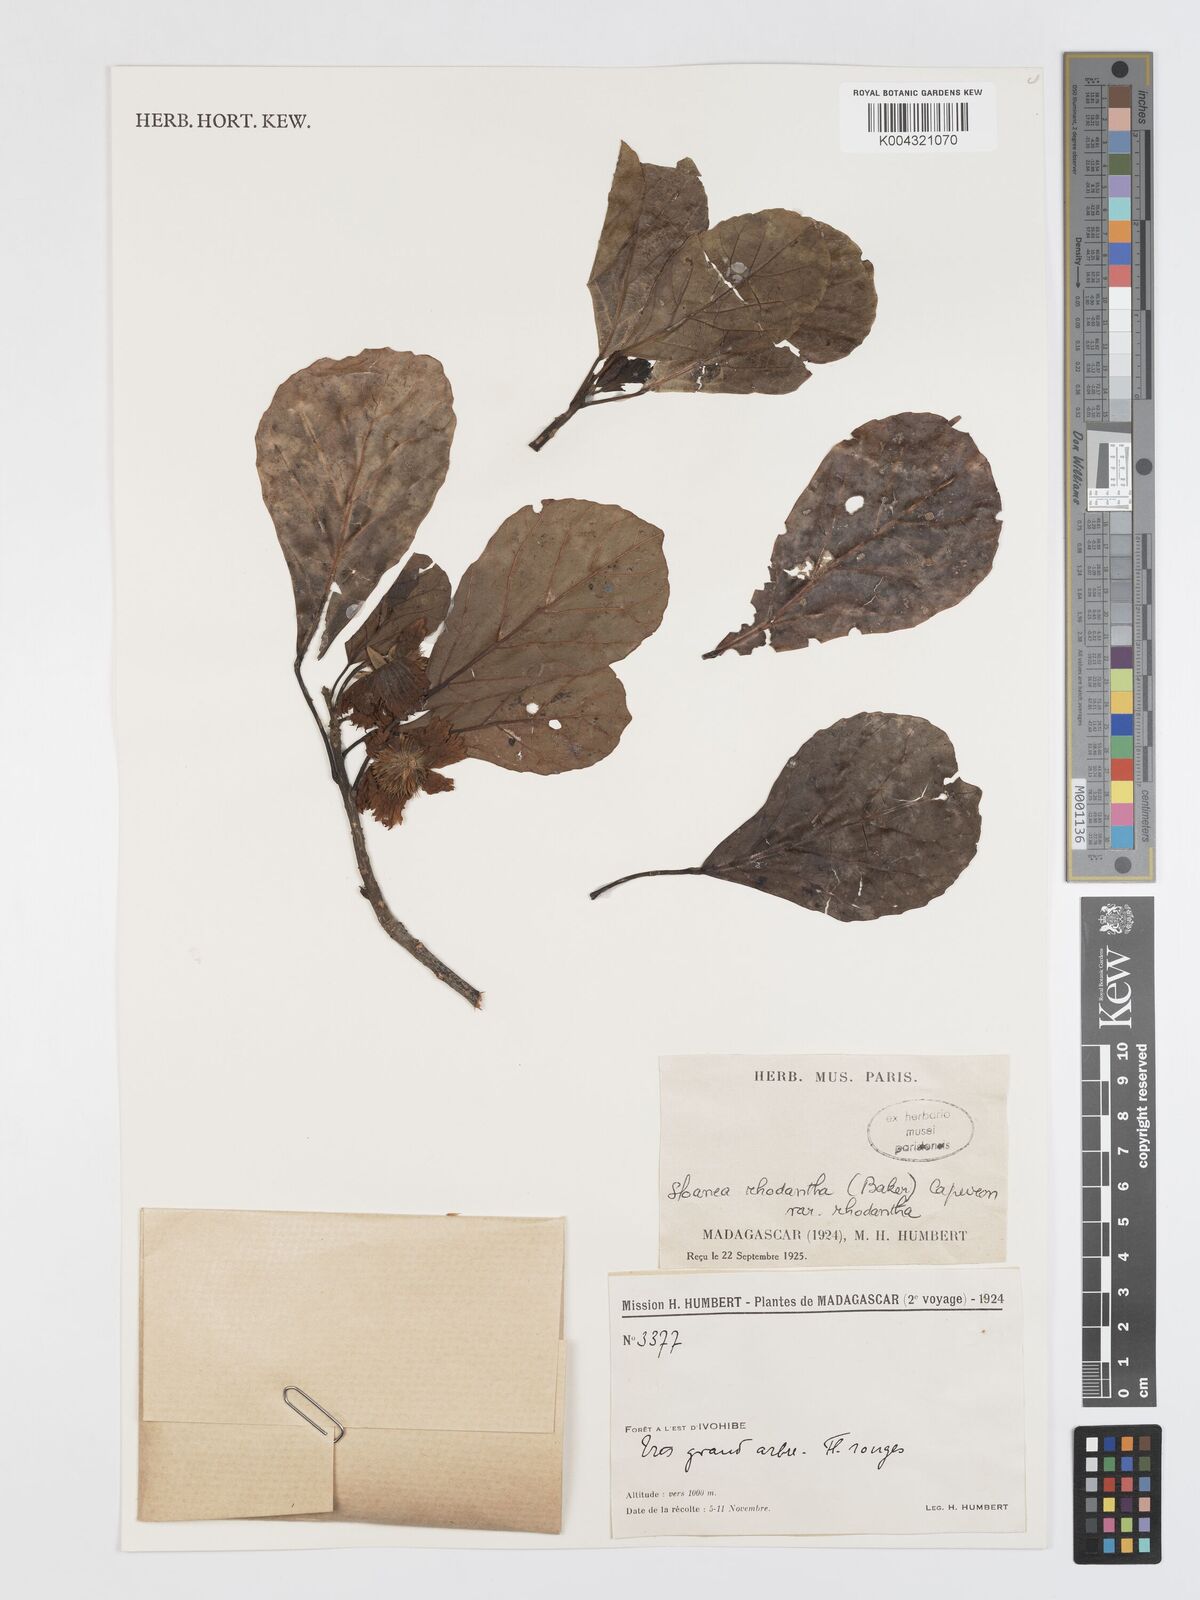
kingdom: Plantae
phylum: Tracheophyta
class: Magnoliopsida
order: Oxalidales
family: Elaeocarpaceae
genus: Sloanea
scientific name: Sloanea rhodantha
